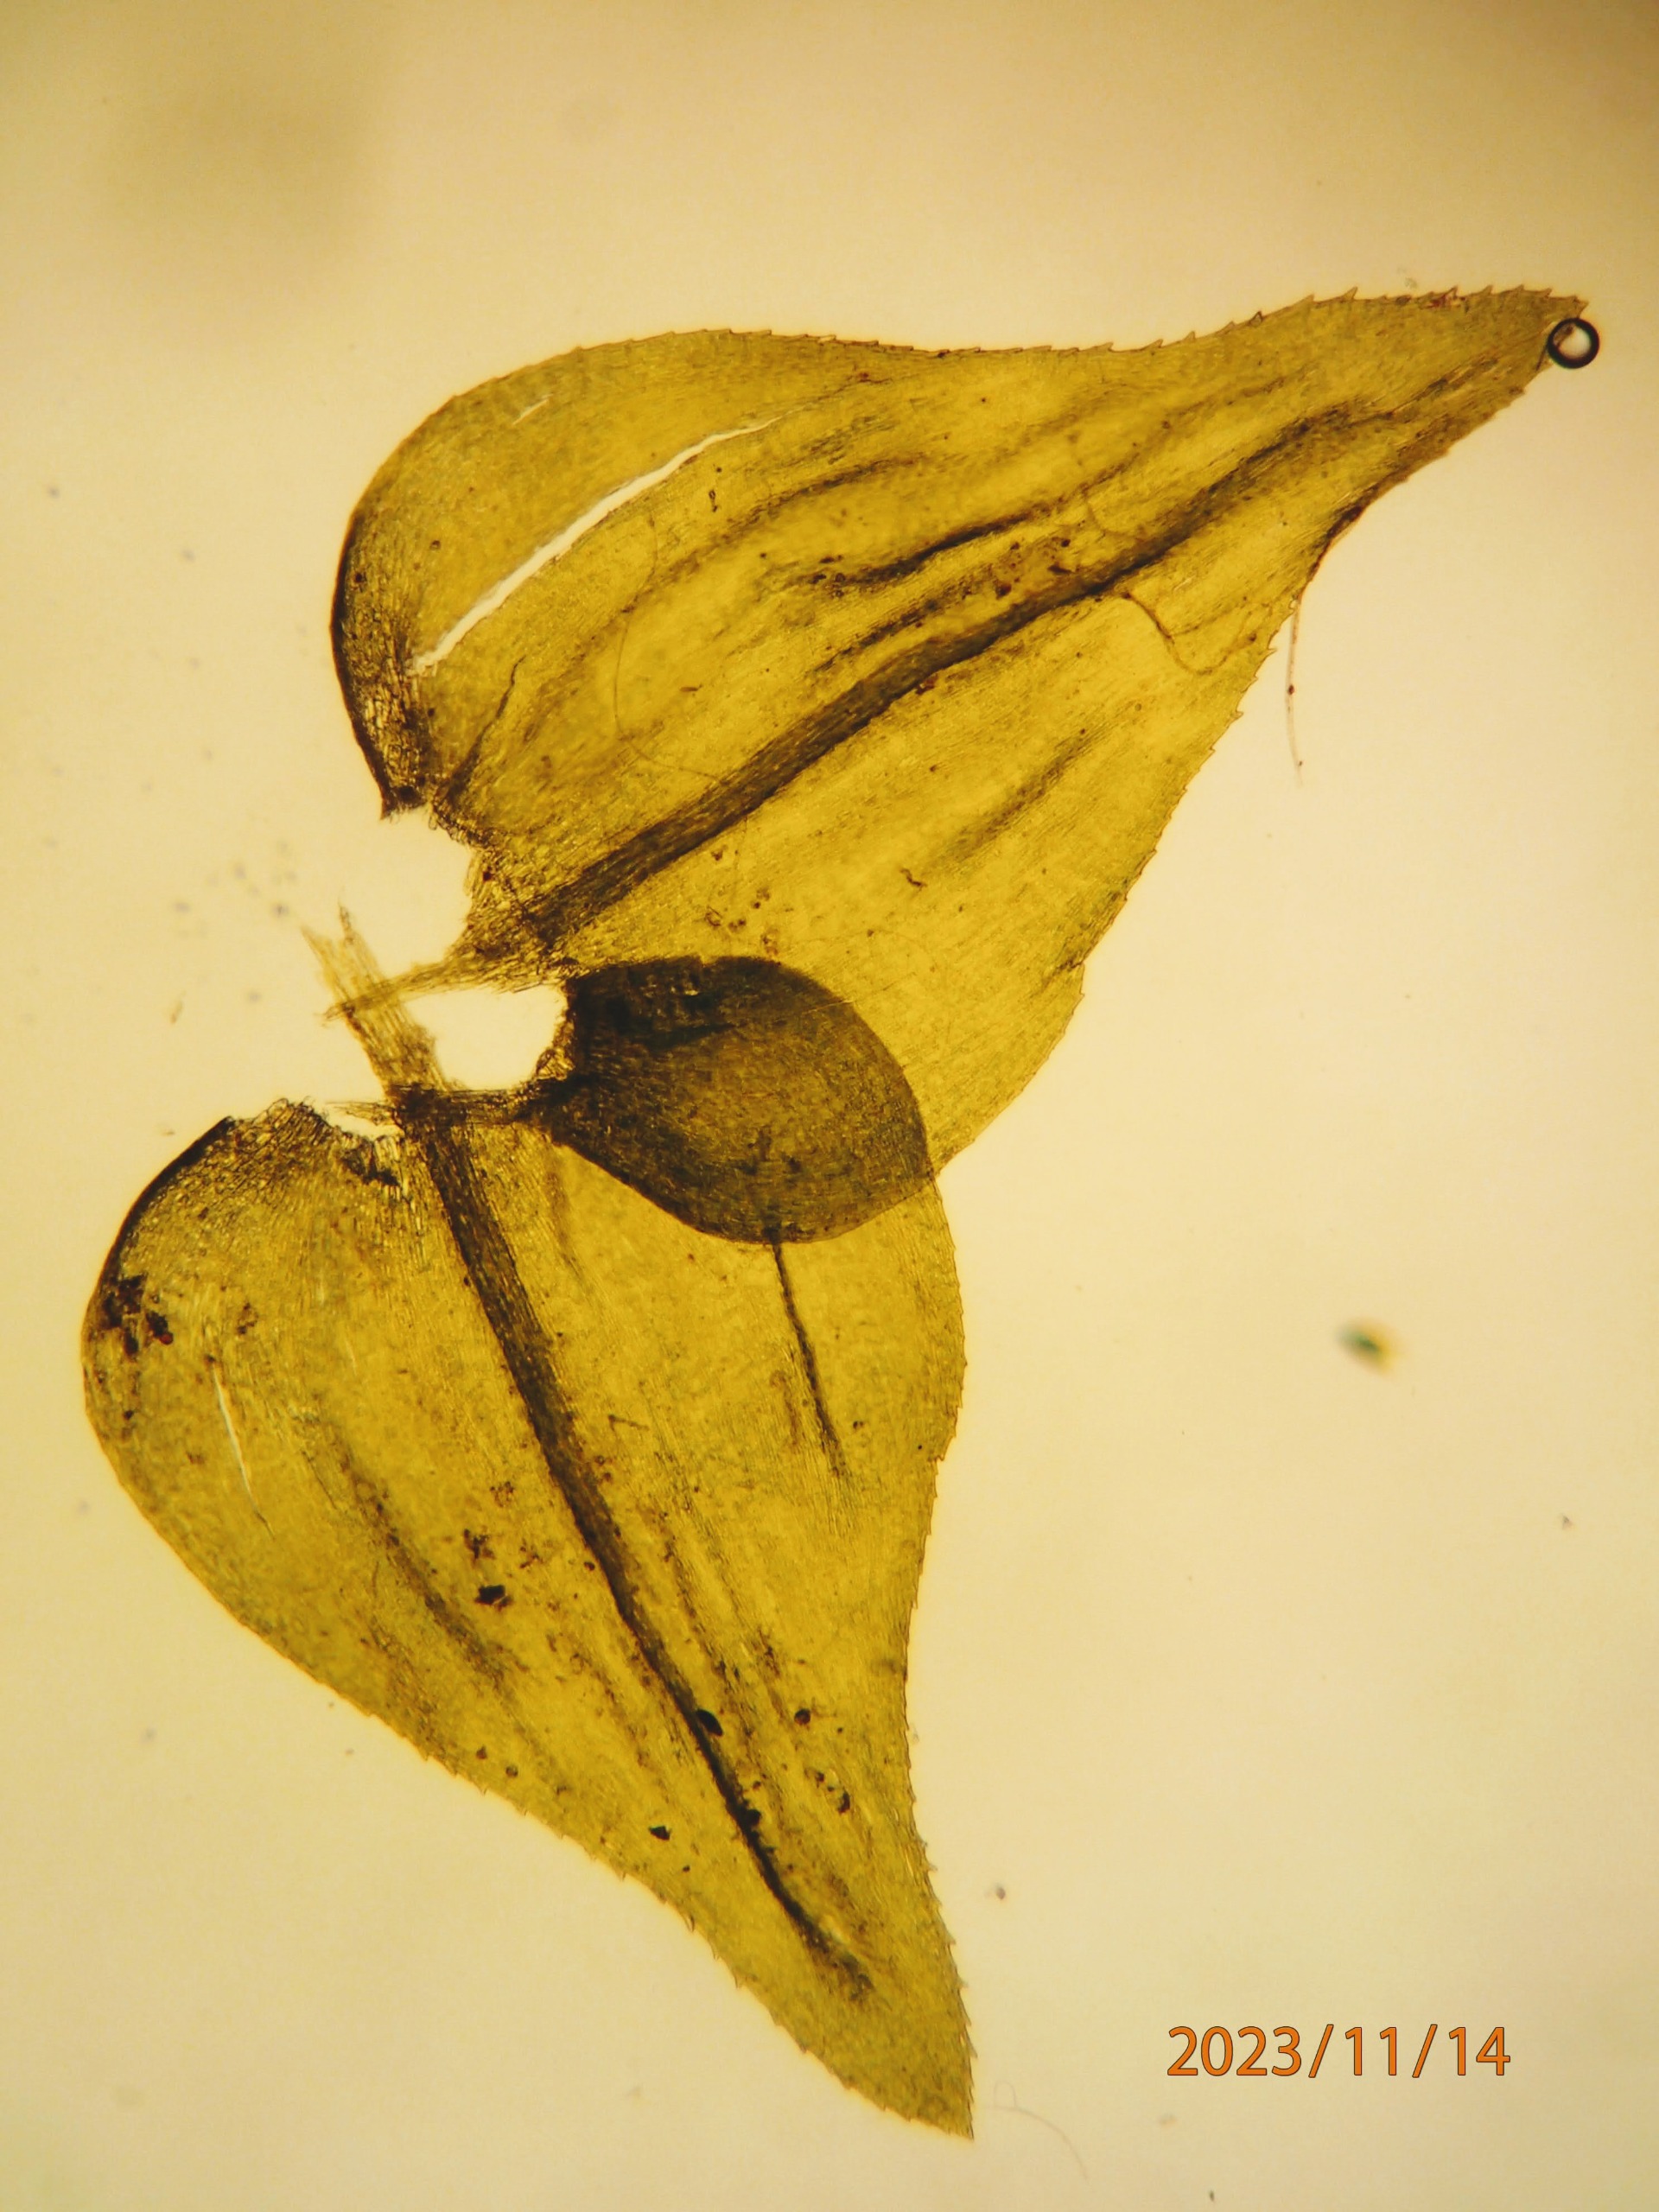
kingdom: Plantae
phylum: Bryophyta
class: Bryopsida
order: Hypnales
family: Brachytheciaceae
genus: Eurhynchium
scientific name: Eurhynchium striatum
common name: Stribet næbmos
